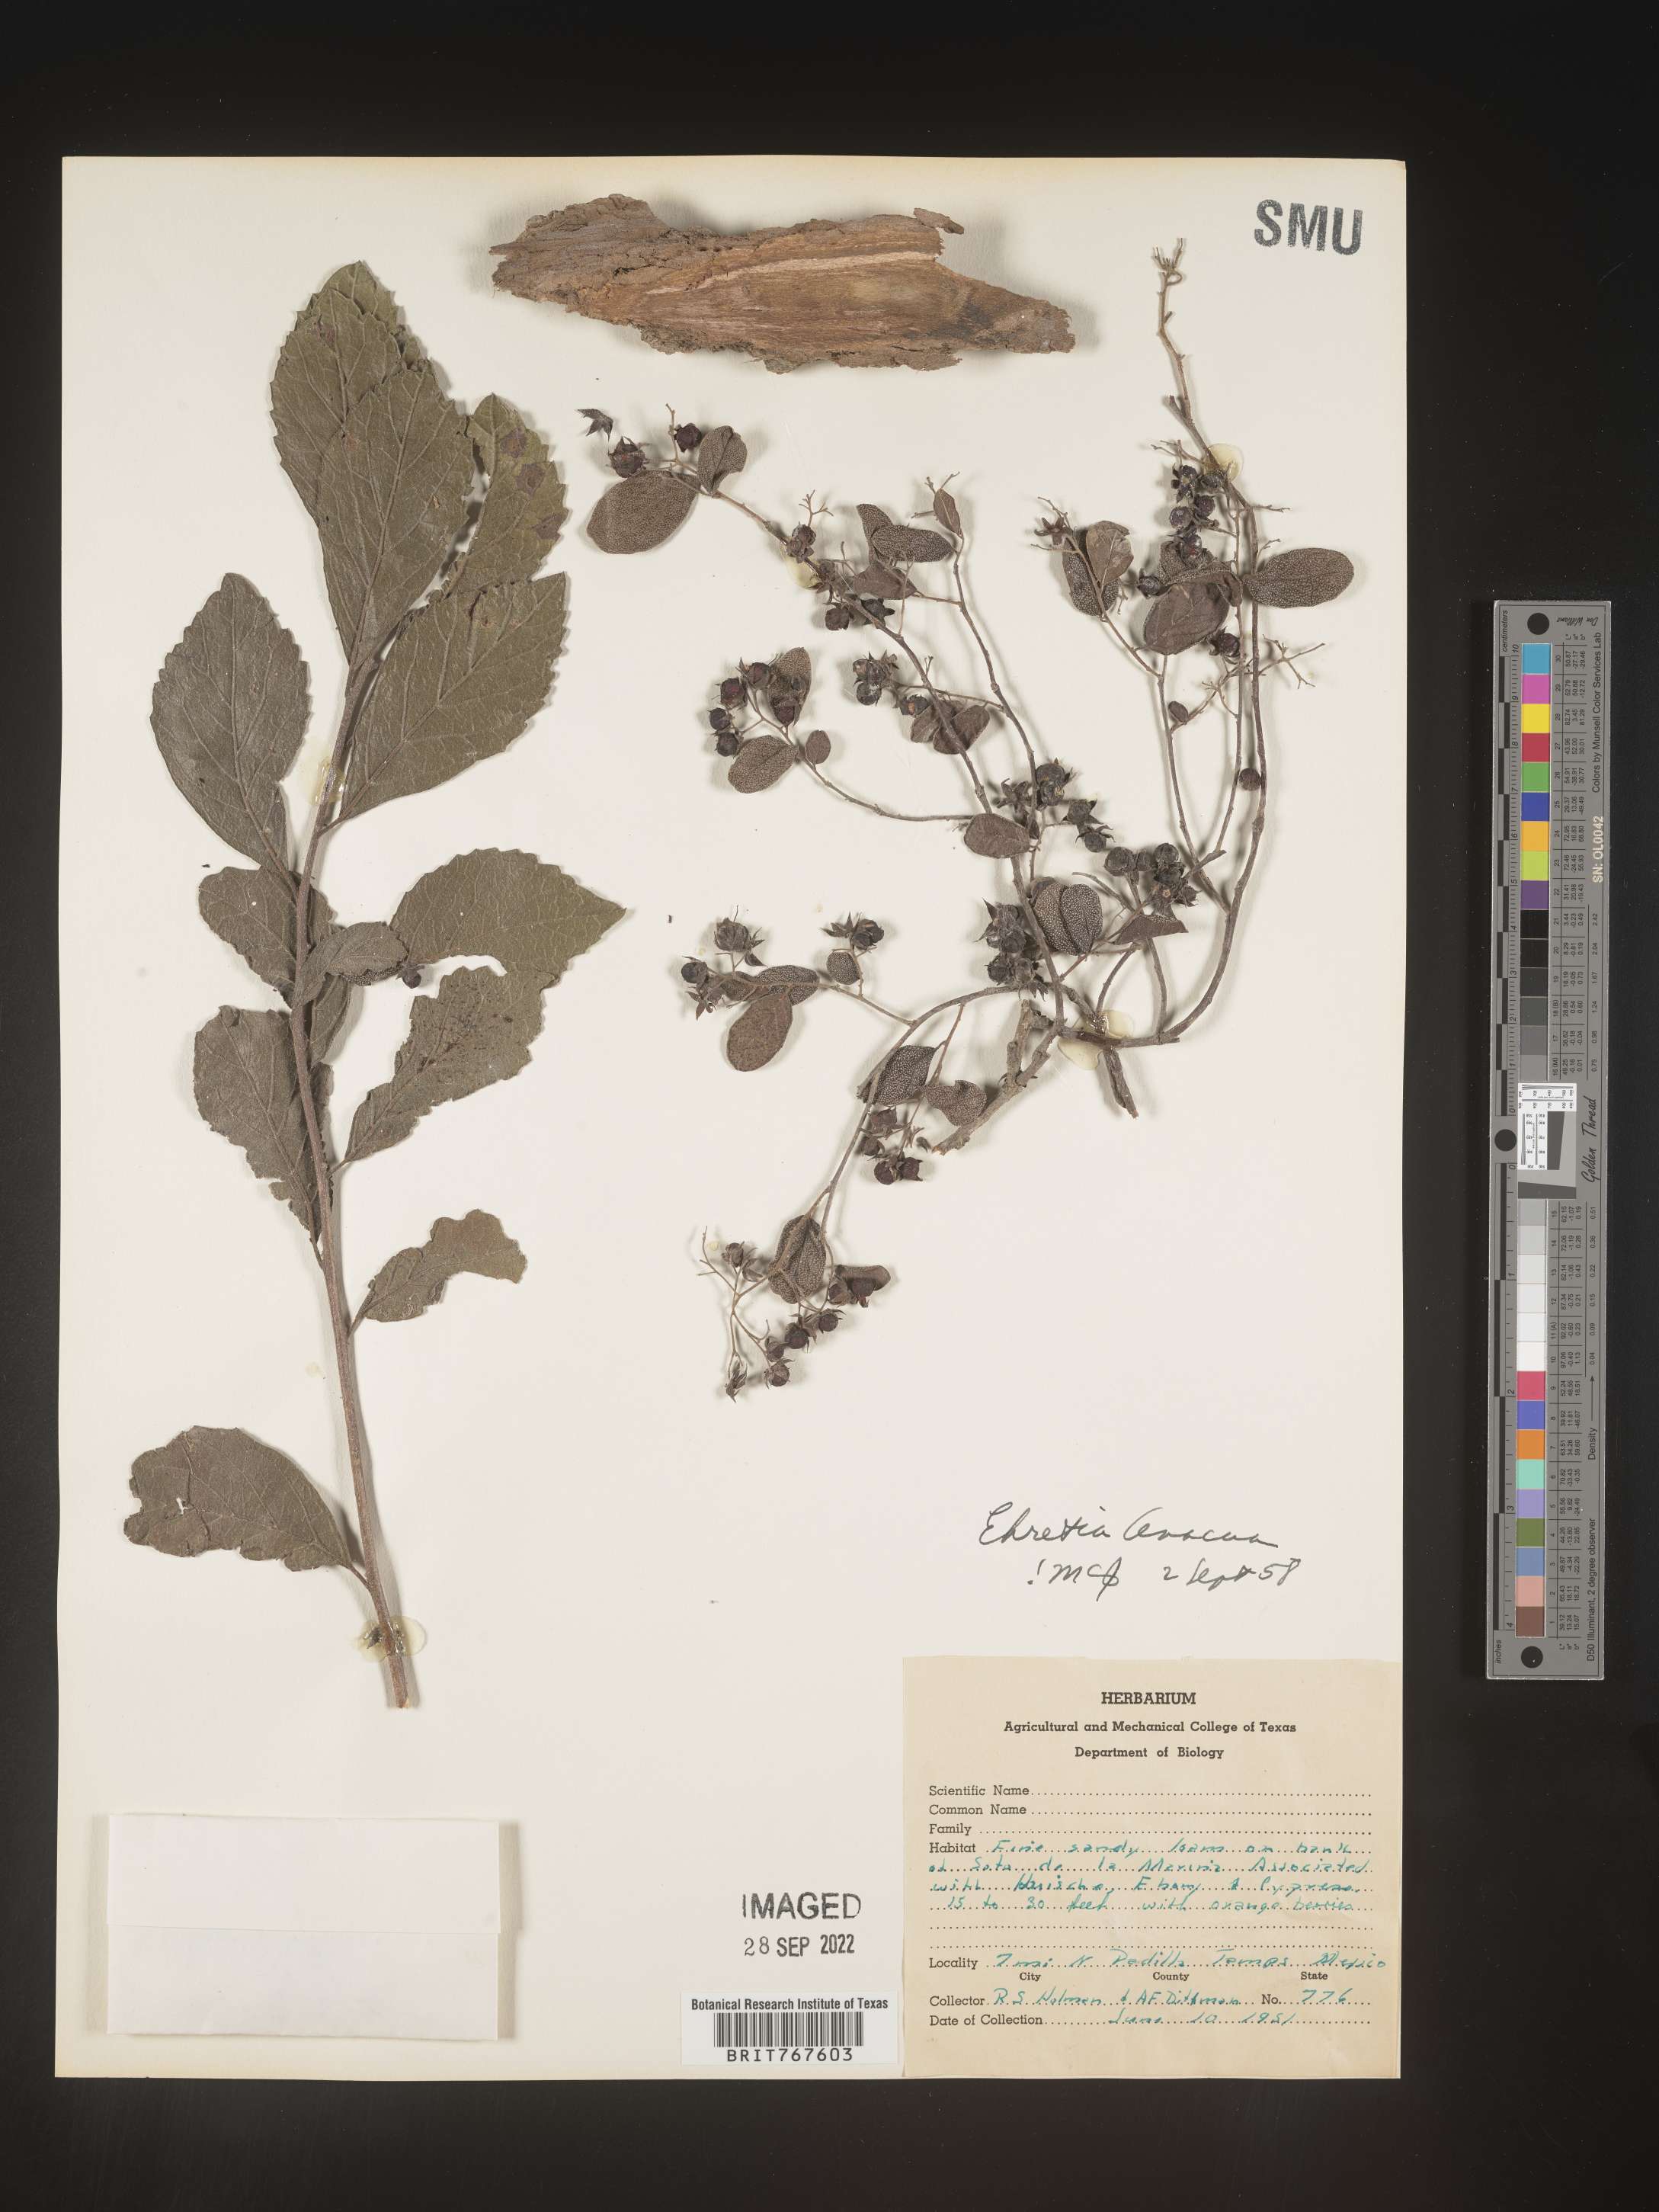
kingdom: Plantae
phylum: Tracheophyta
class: Magnoliopsida
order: Boraginales
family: Ehretiaceae
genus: Ehretia
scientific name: Ehretia
